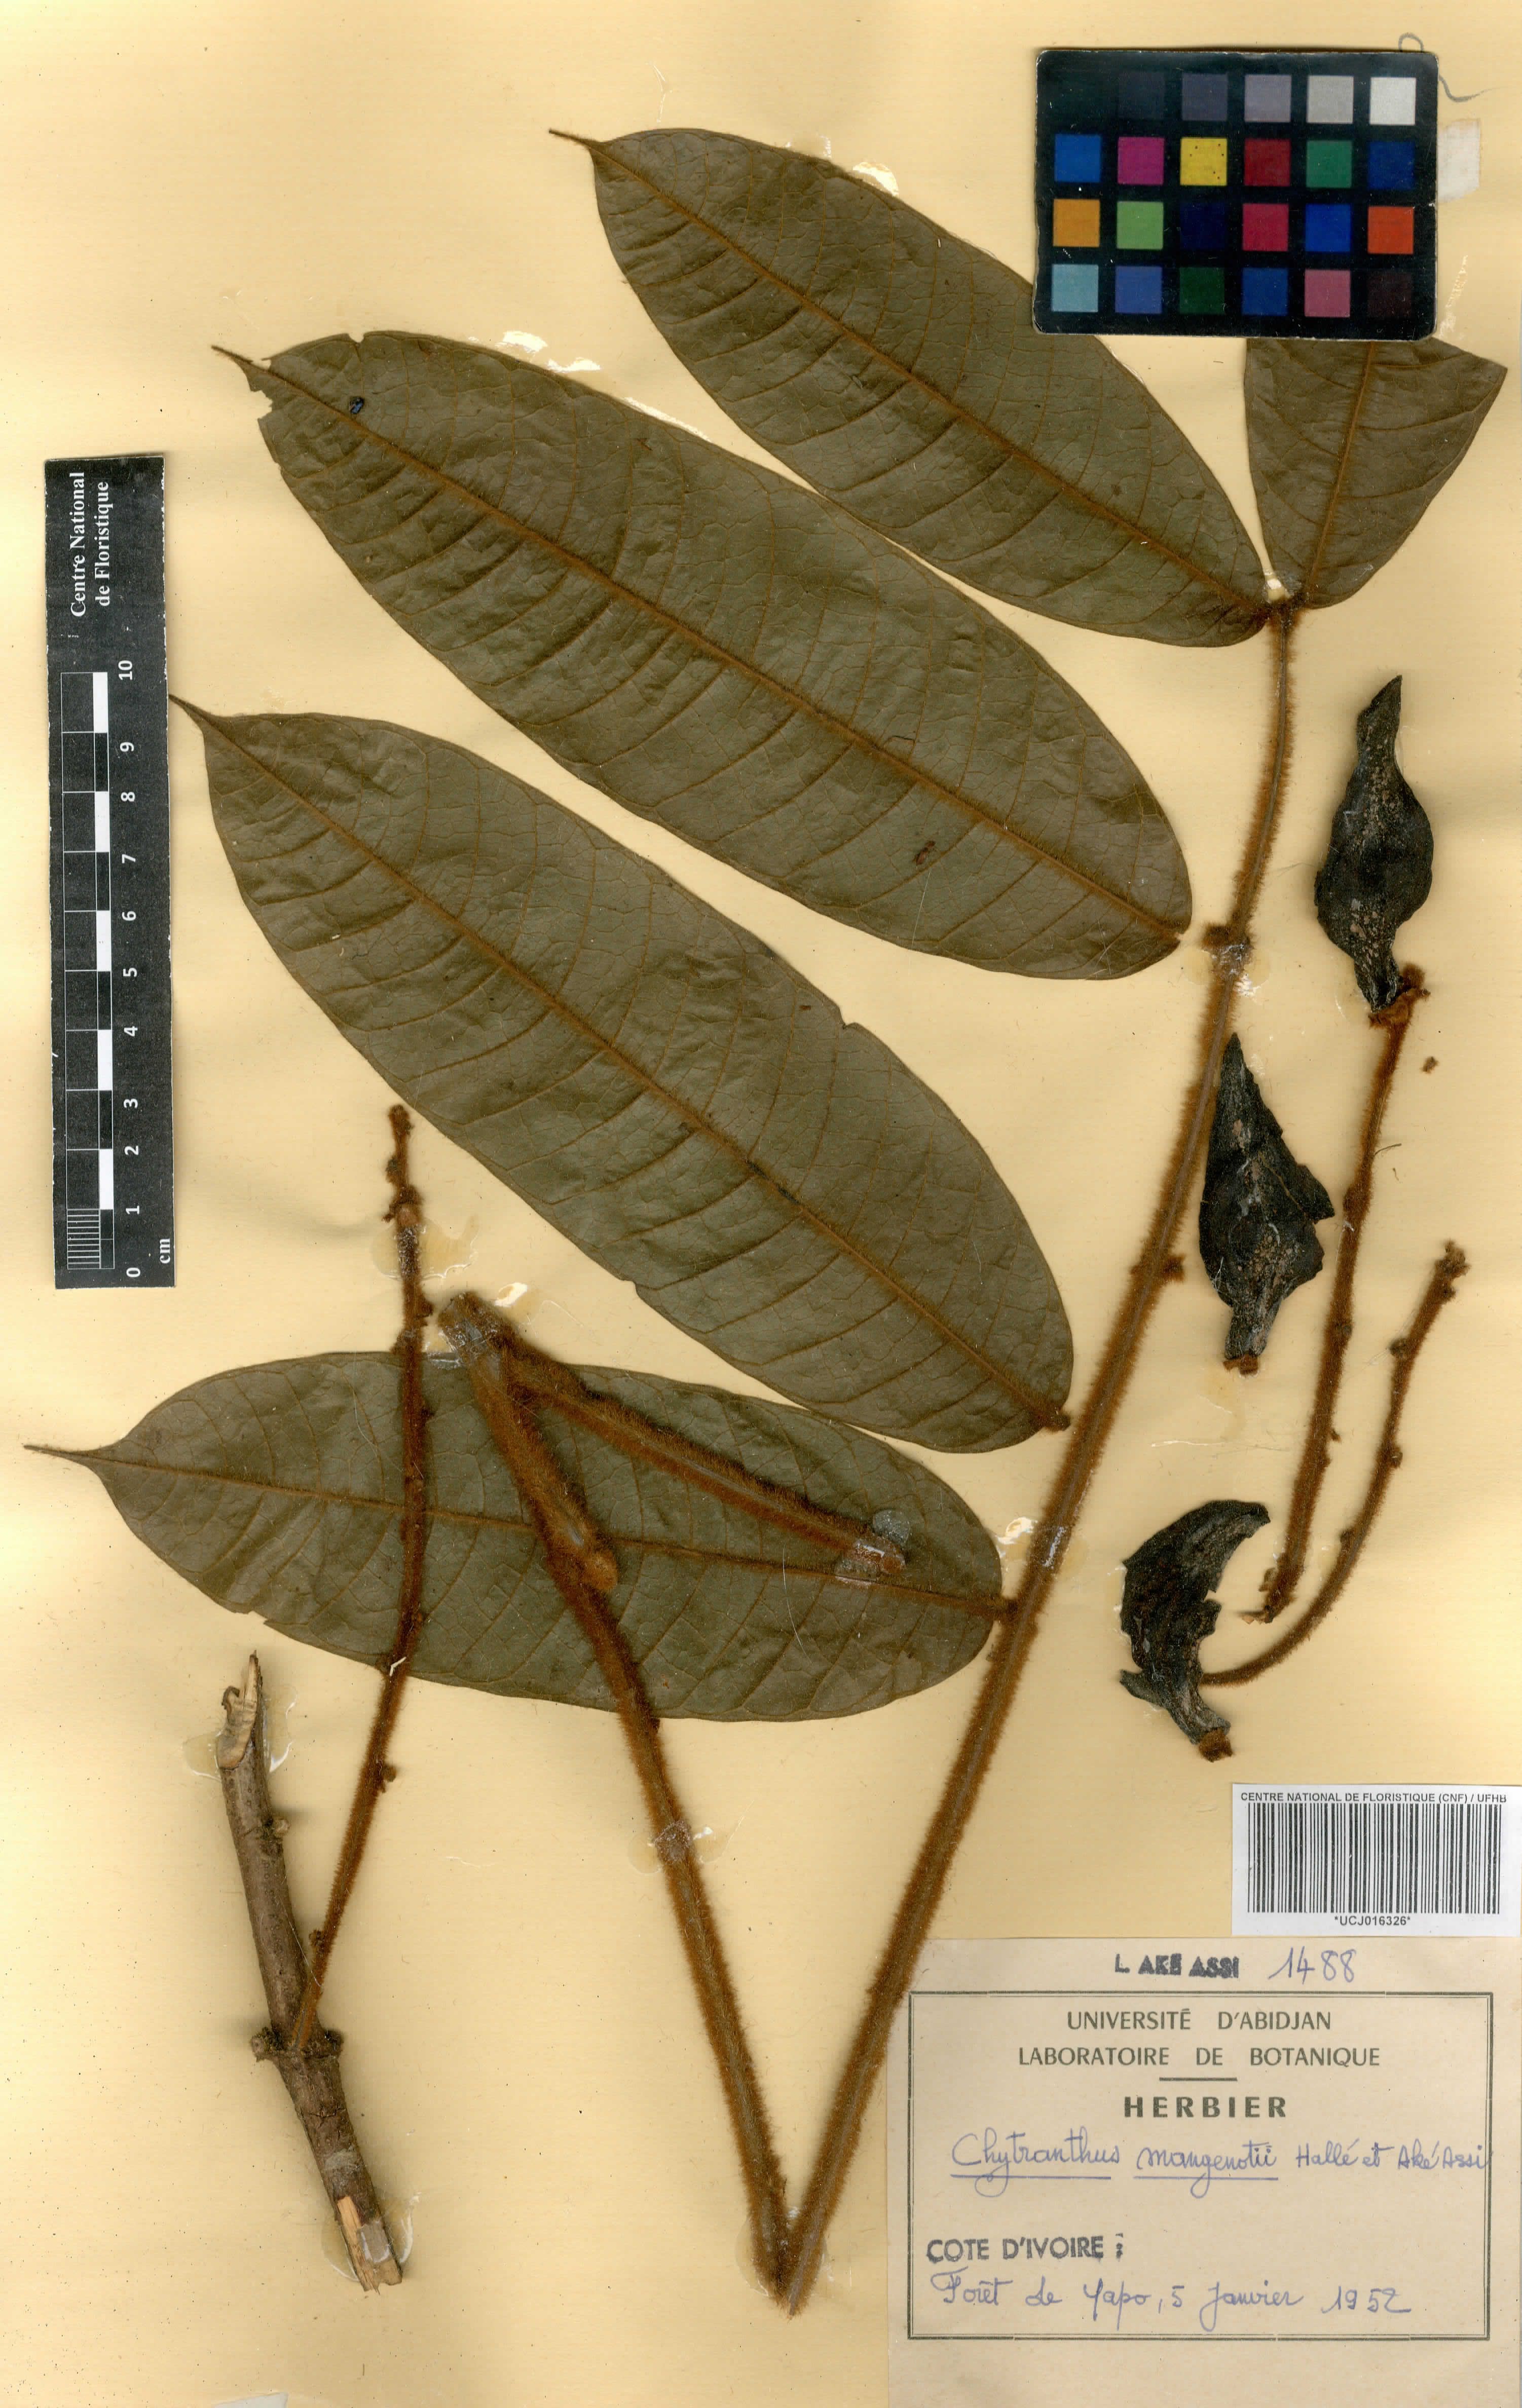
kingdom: Plantae
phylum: Tracheophyta
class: Magnoliopsida
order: Sapindales
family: Sapindaceae
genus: Chytranthus
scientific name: Chytranthus cauliflorus
